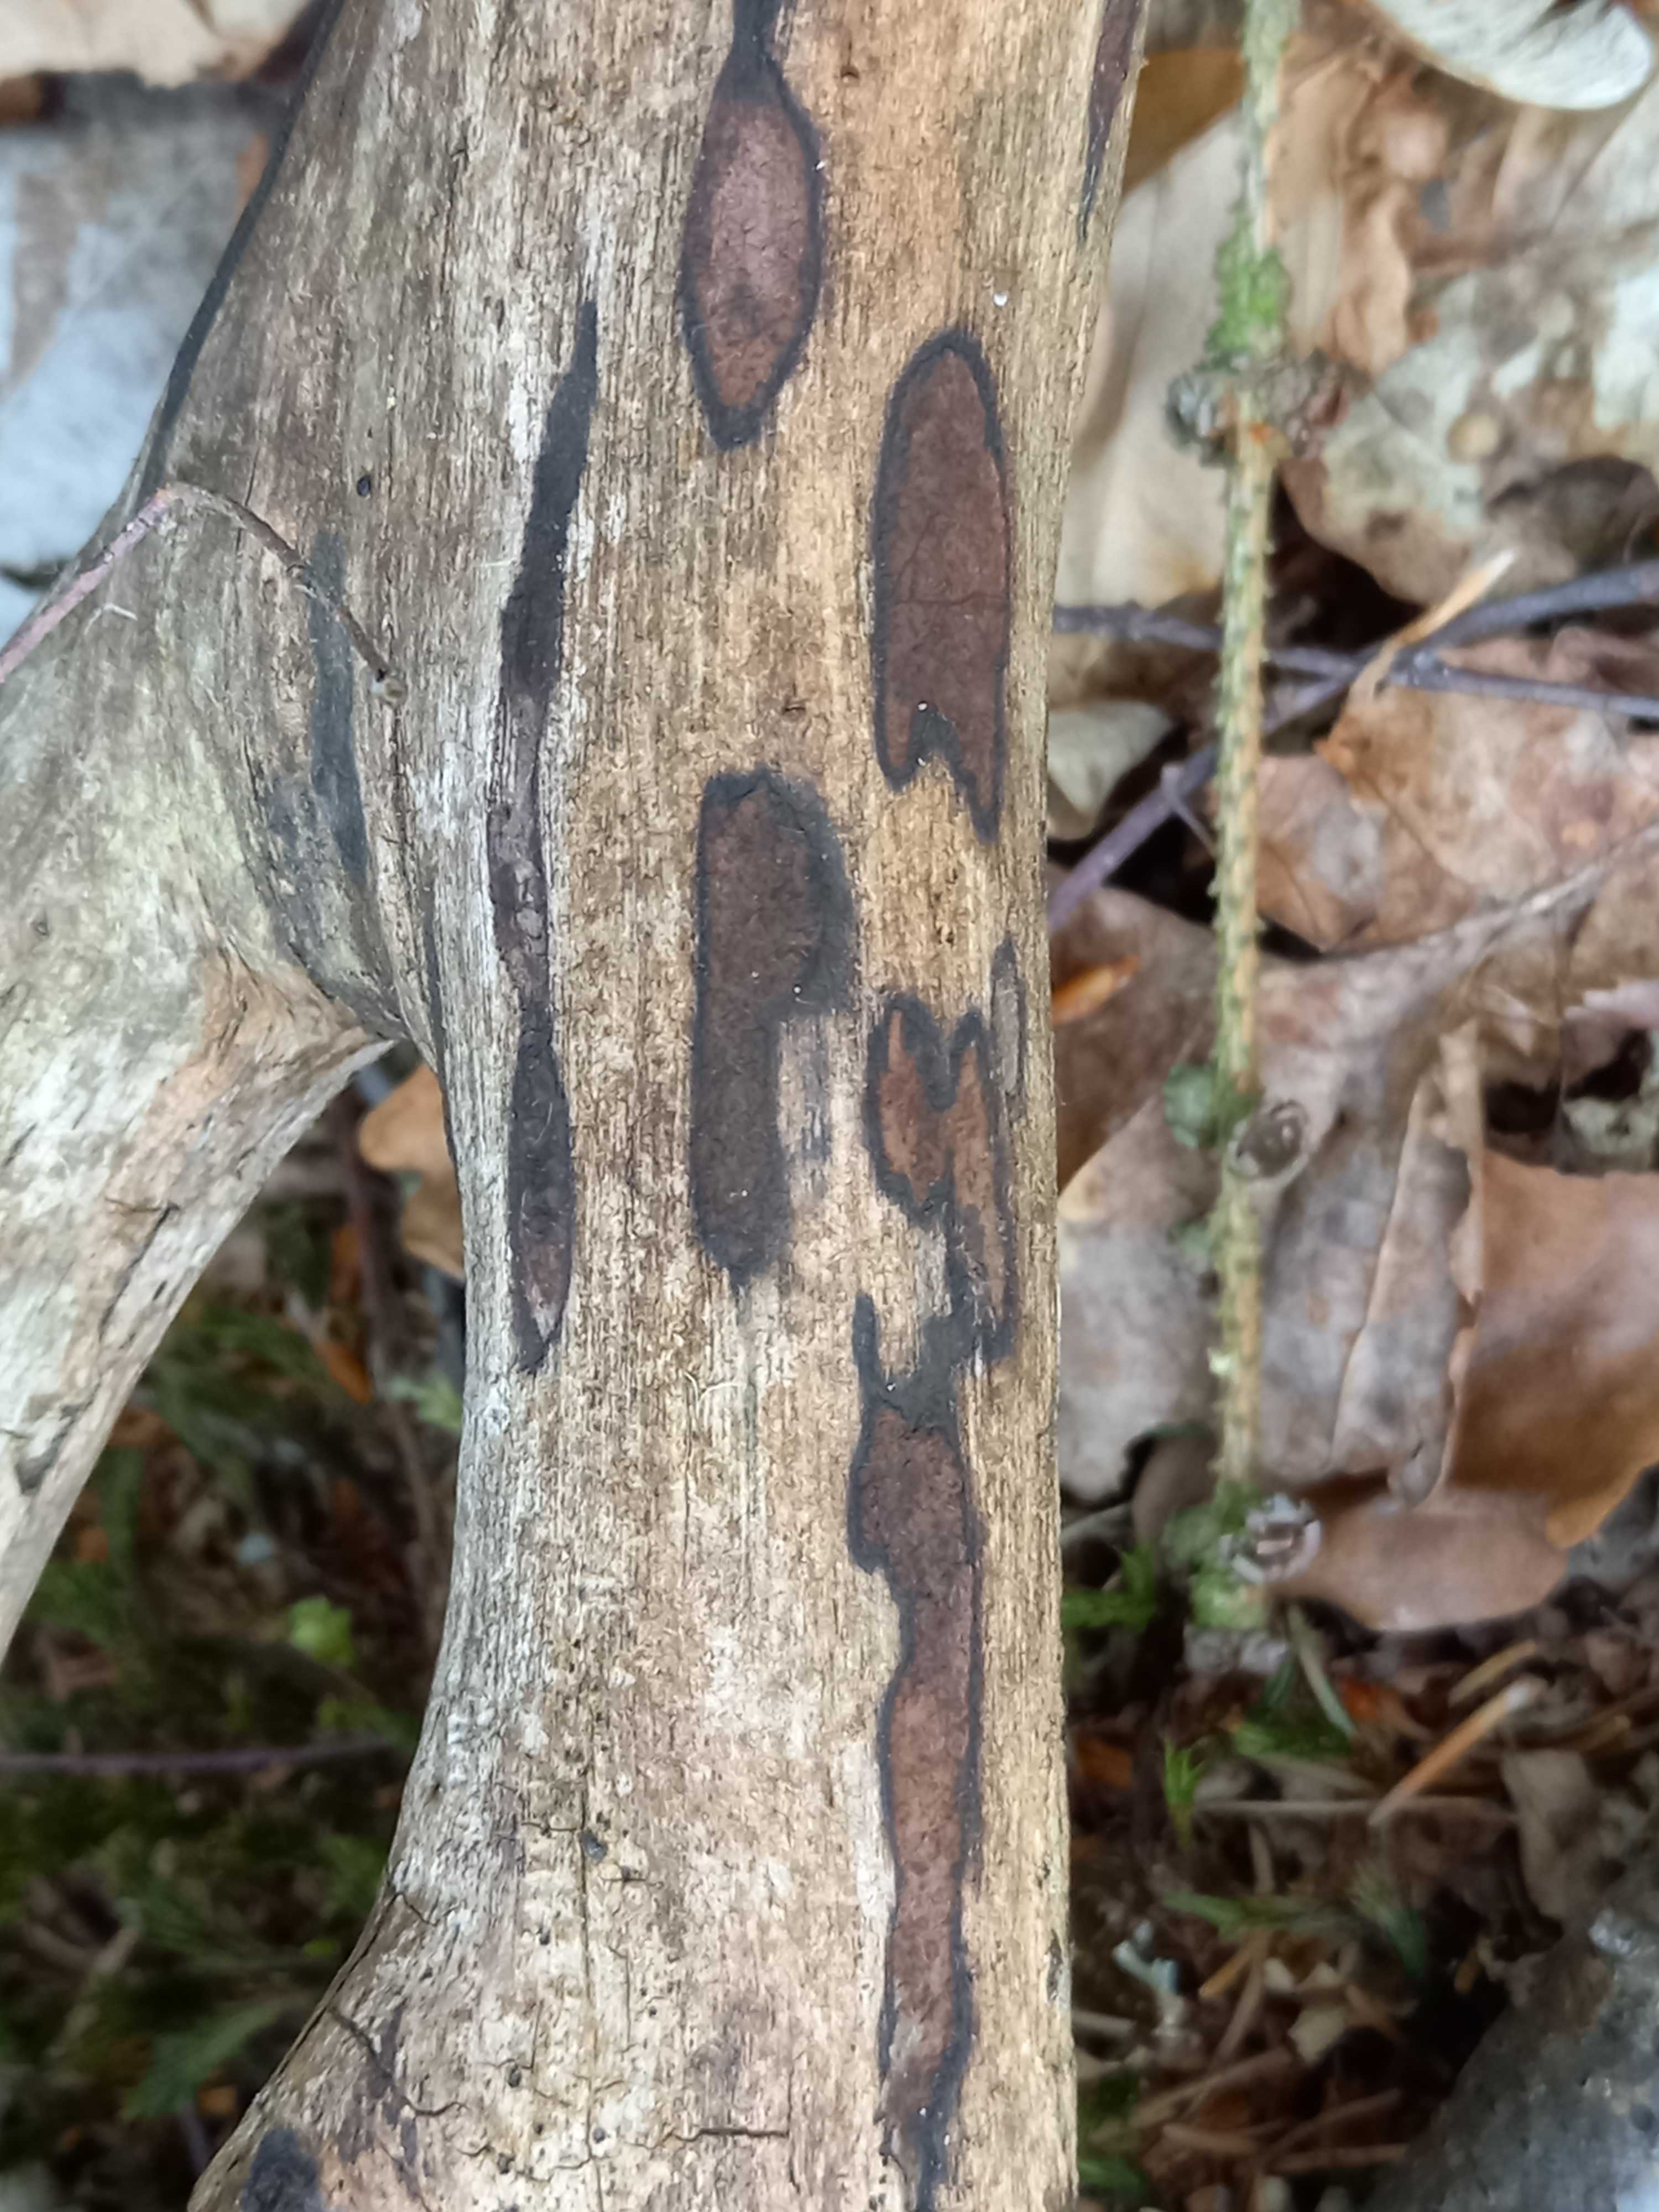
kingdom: Fungi
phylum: Ascomycota
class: Sordariomycetes
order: Xylariales
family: Hypoxylaceae
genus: Hypoxylon
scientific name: Hypoxylon petriniae
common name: nedsænket kulbær
